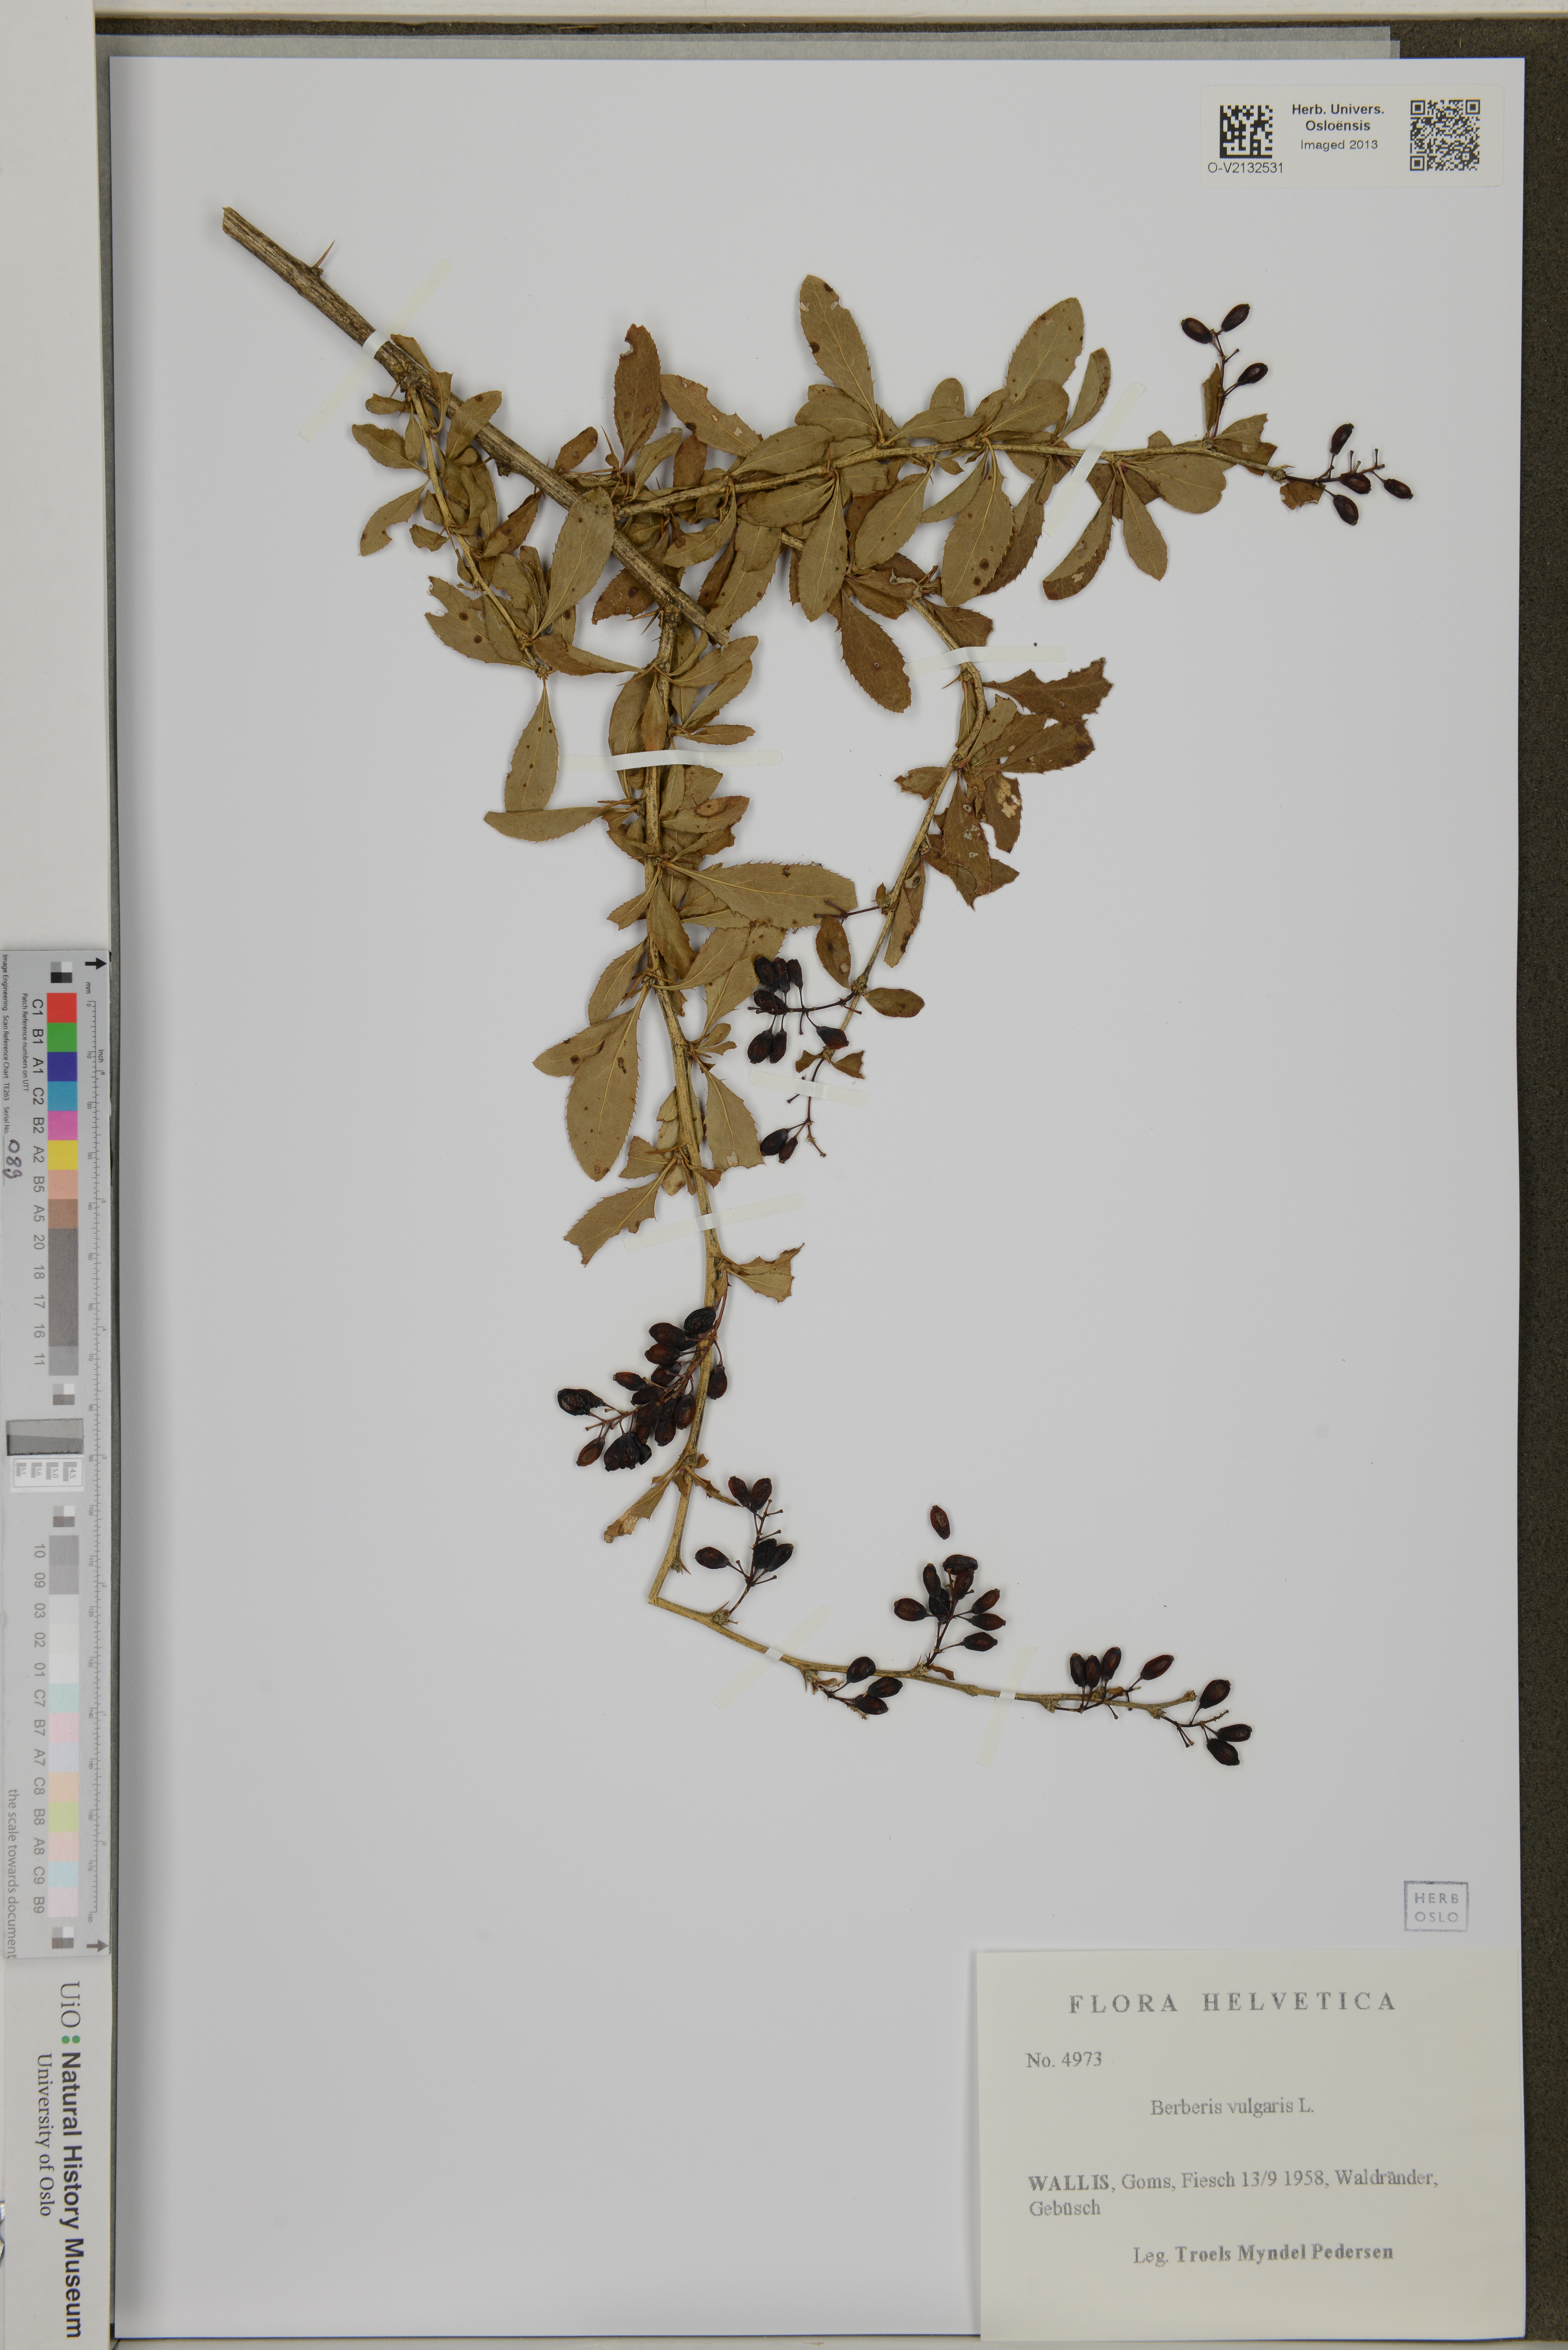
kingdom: Plantae
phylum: Tracheophyta
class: Magnoliopsida
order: Ranunculales
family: Berberidaceae
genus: Berberis
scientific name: Berberis vulgaris
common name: Barberry
